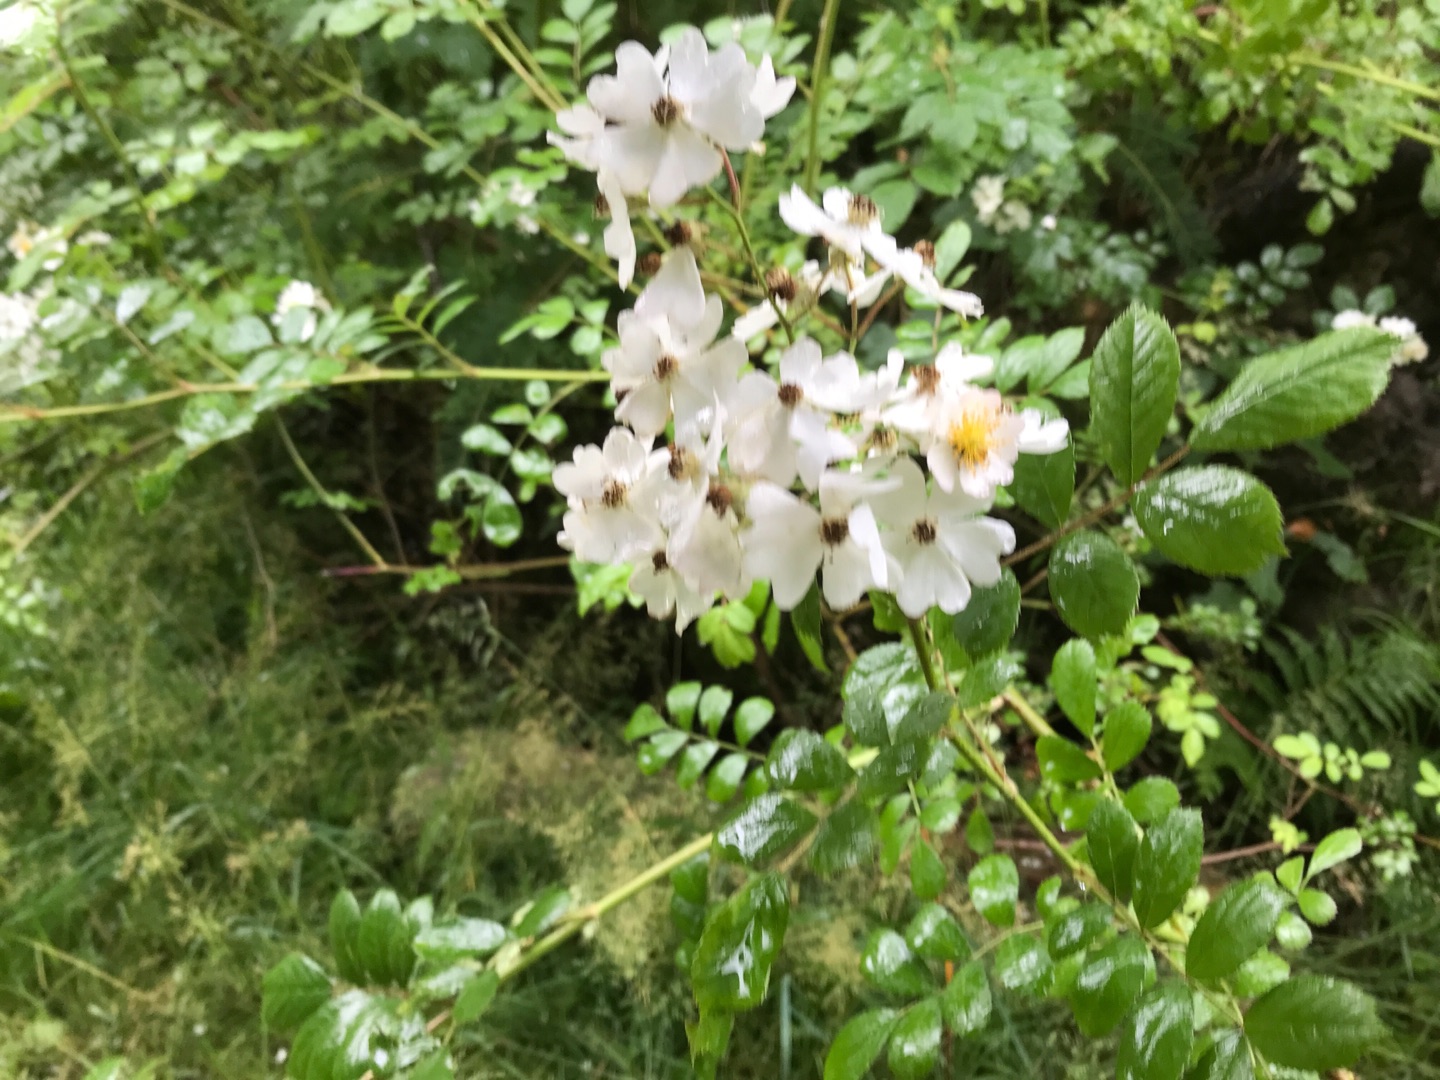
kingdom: Plantae
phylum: Tracheophyta
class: Magnoliopsida
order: Rosales
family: Rosaceae
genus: Rosa
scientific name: Rosa multiflora
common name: Mangeblomstret rose
